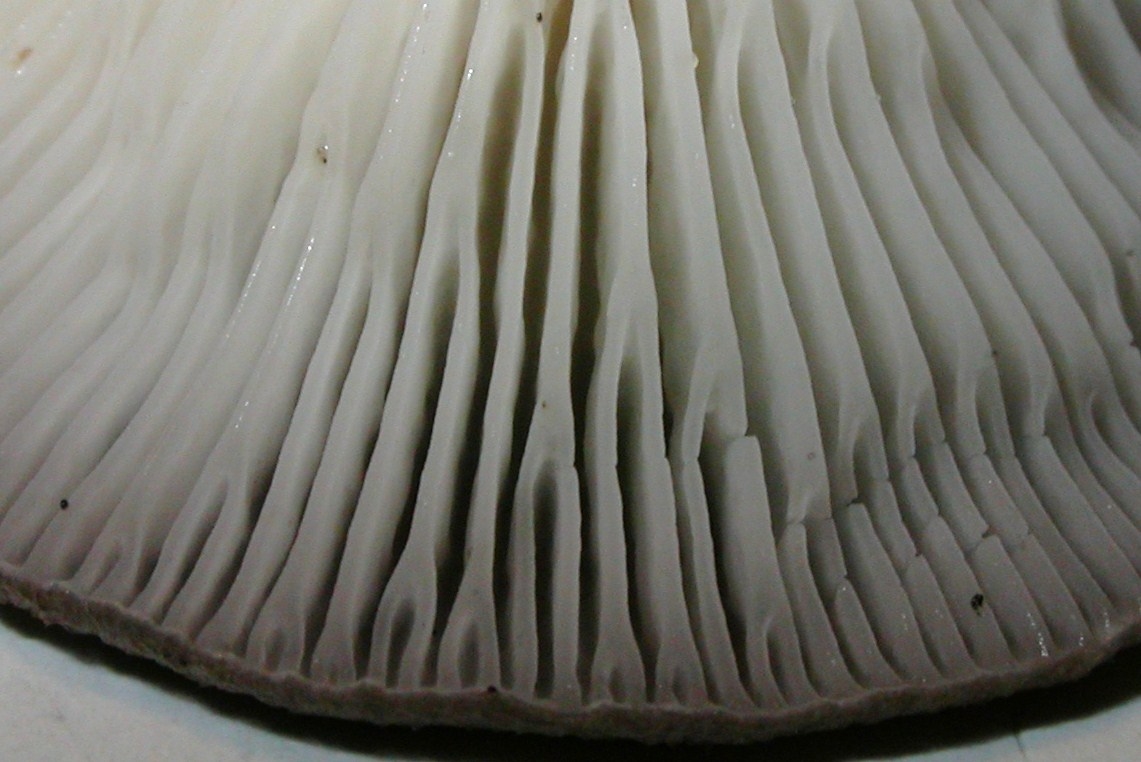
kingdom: Fungi
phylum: Basidiomycota
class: Agaricomycetes
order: Agaricales
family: Hygrophoraceae
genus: Cantharellula
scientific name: Cantharellula umbonata
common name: rødmende gaffelblad
